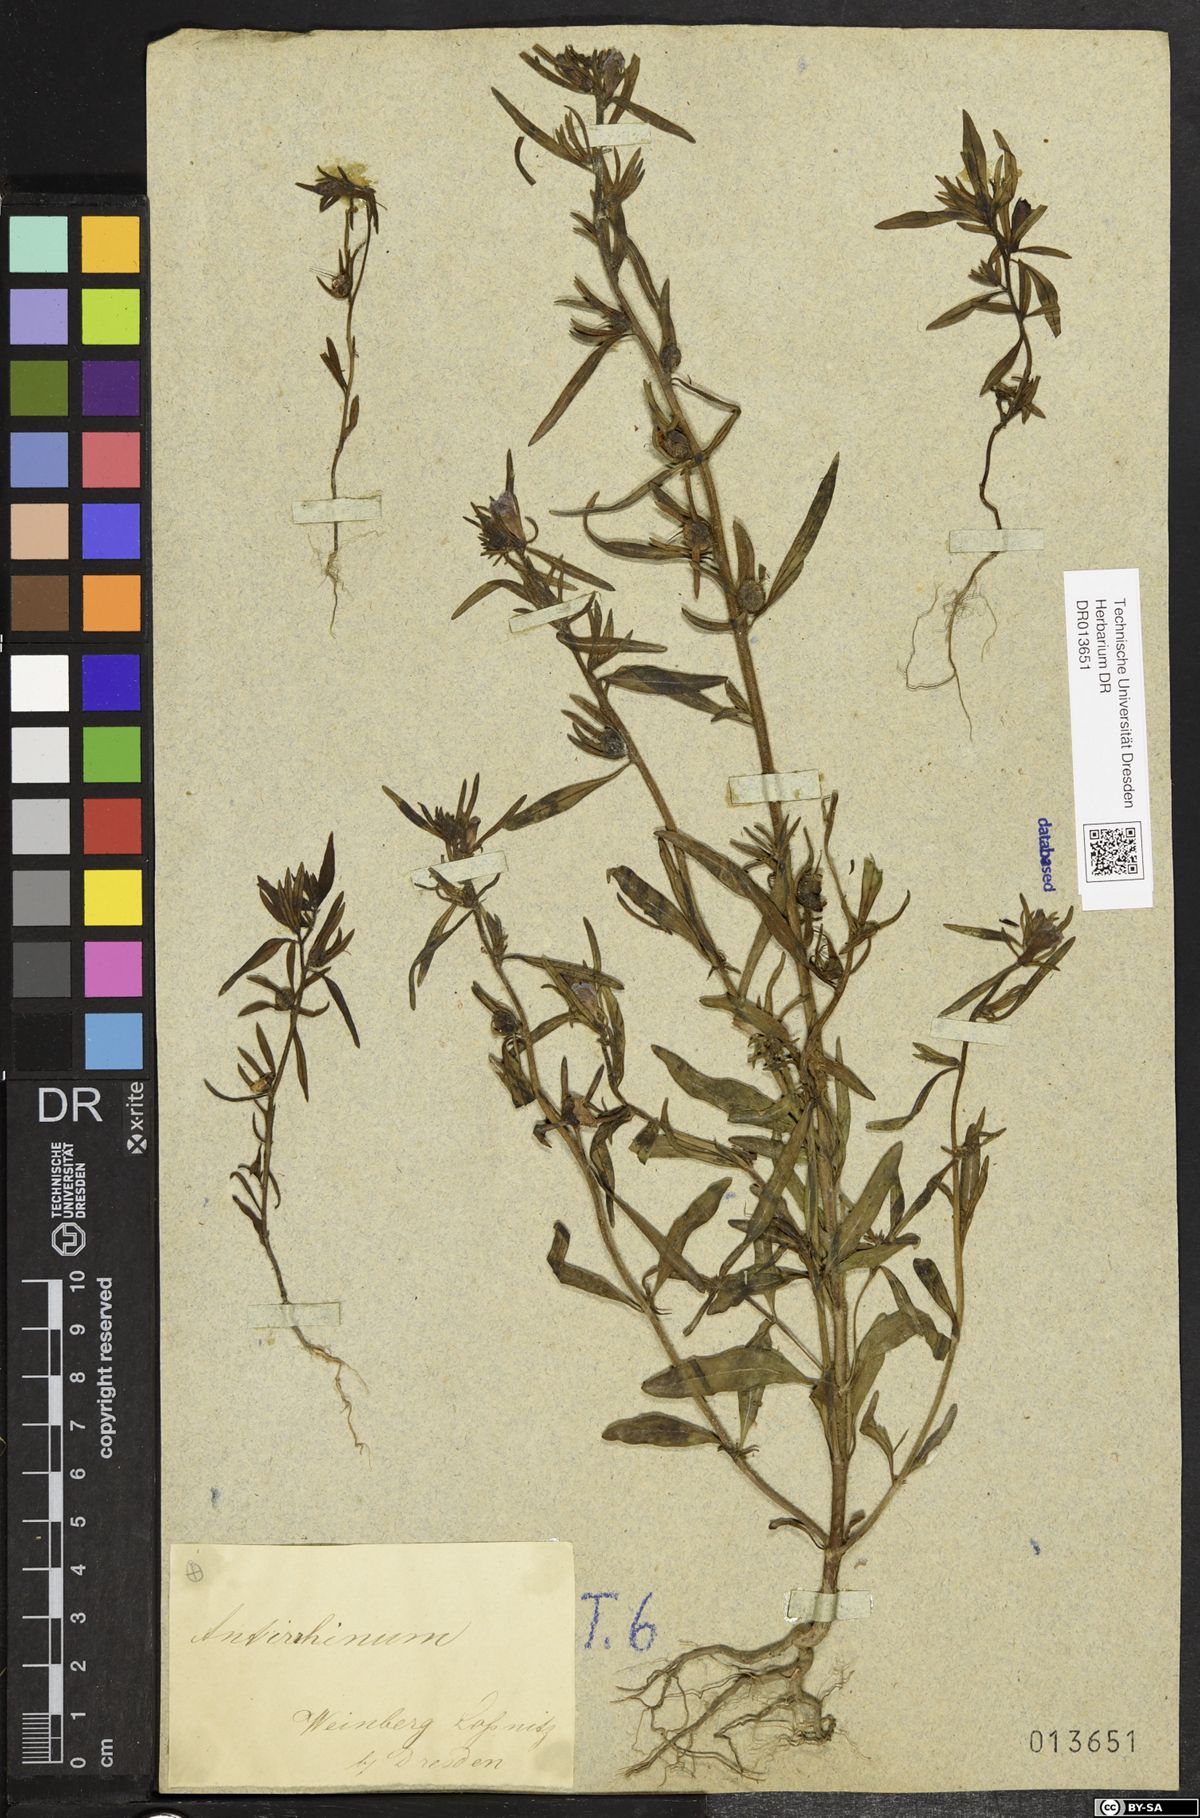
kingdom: Plantae
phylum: Tracheophyta
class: Magnoliopsida
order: Lamiales
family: Plantaginaceae
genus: Misopates
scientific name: Misopates orontium
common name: Weasel's-snout
